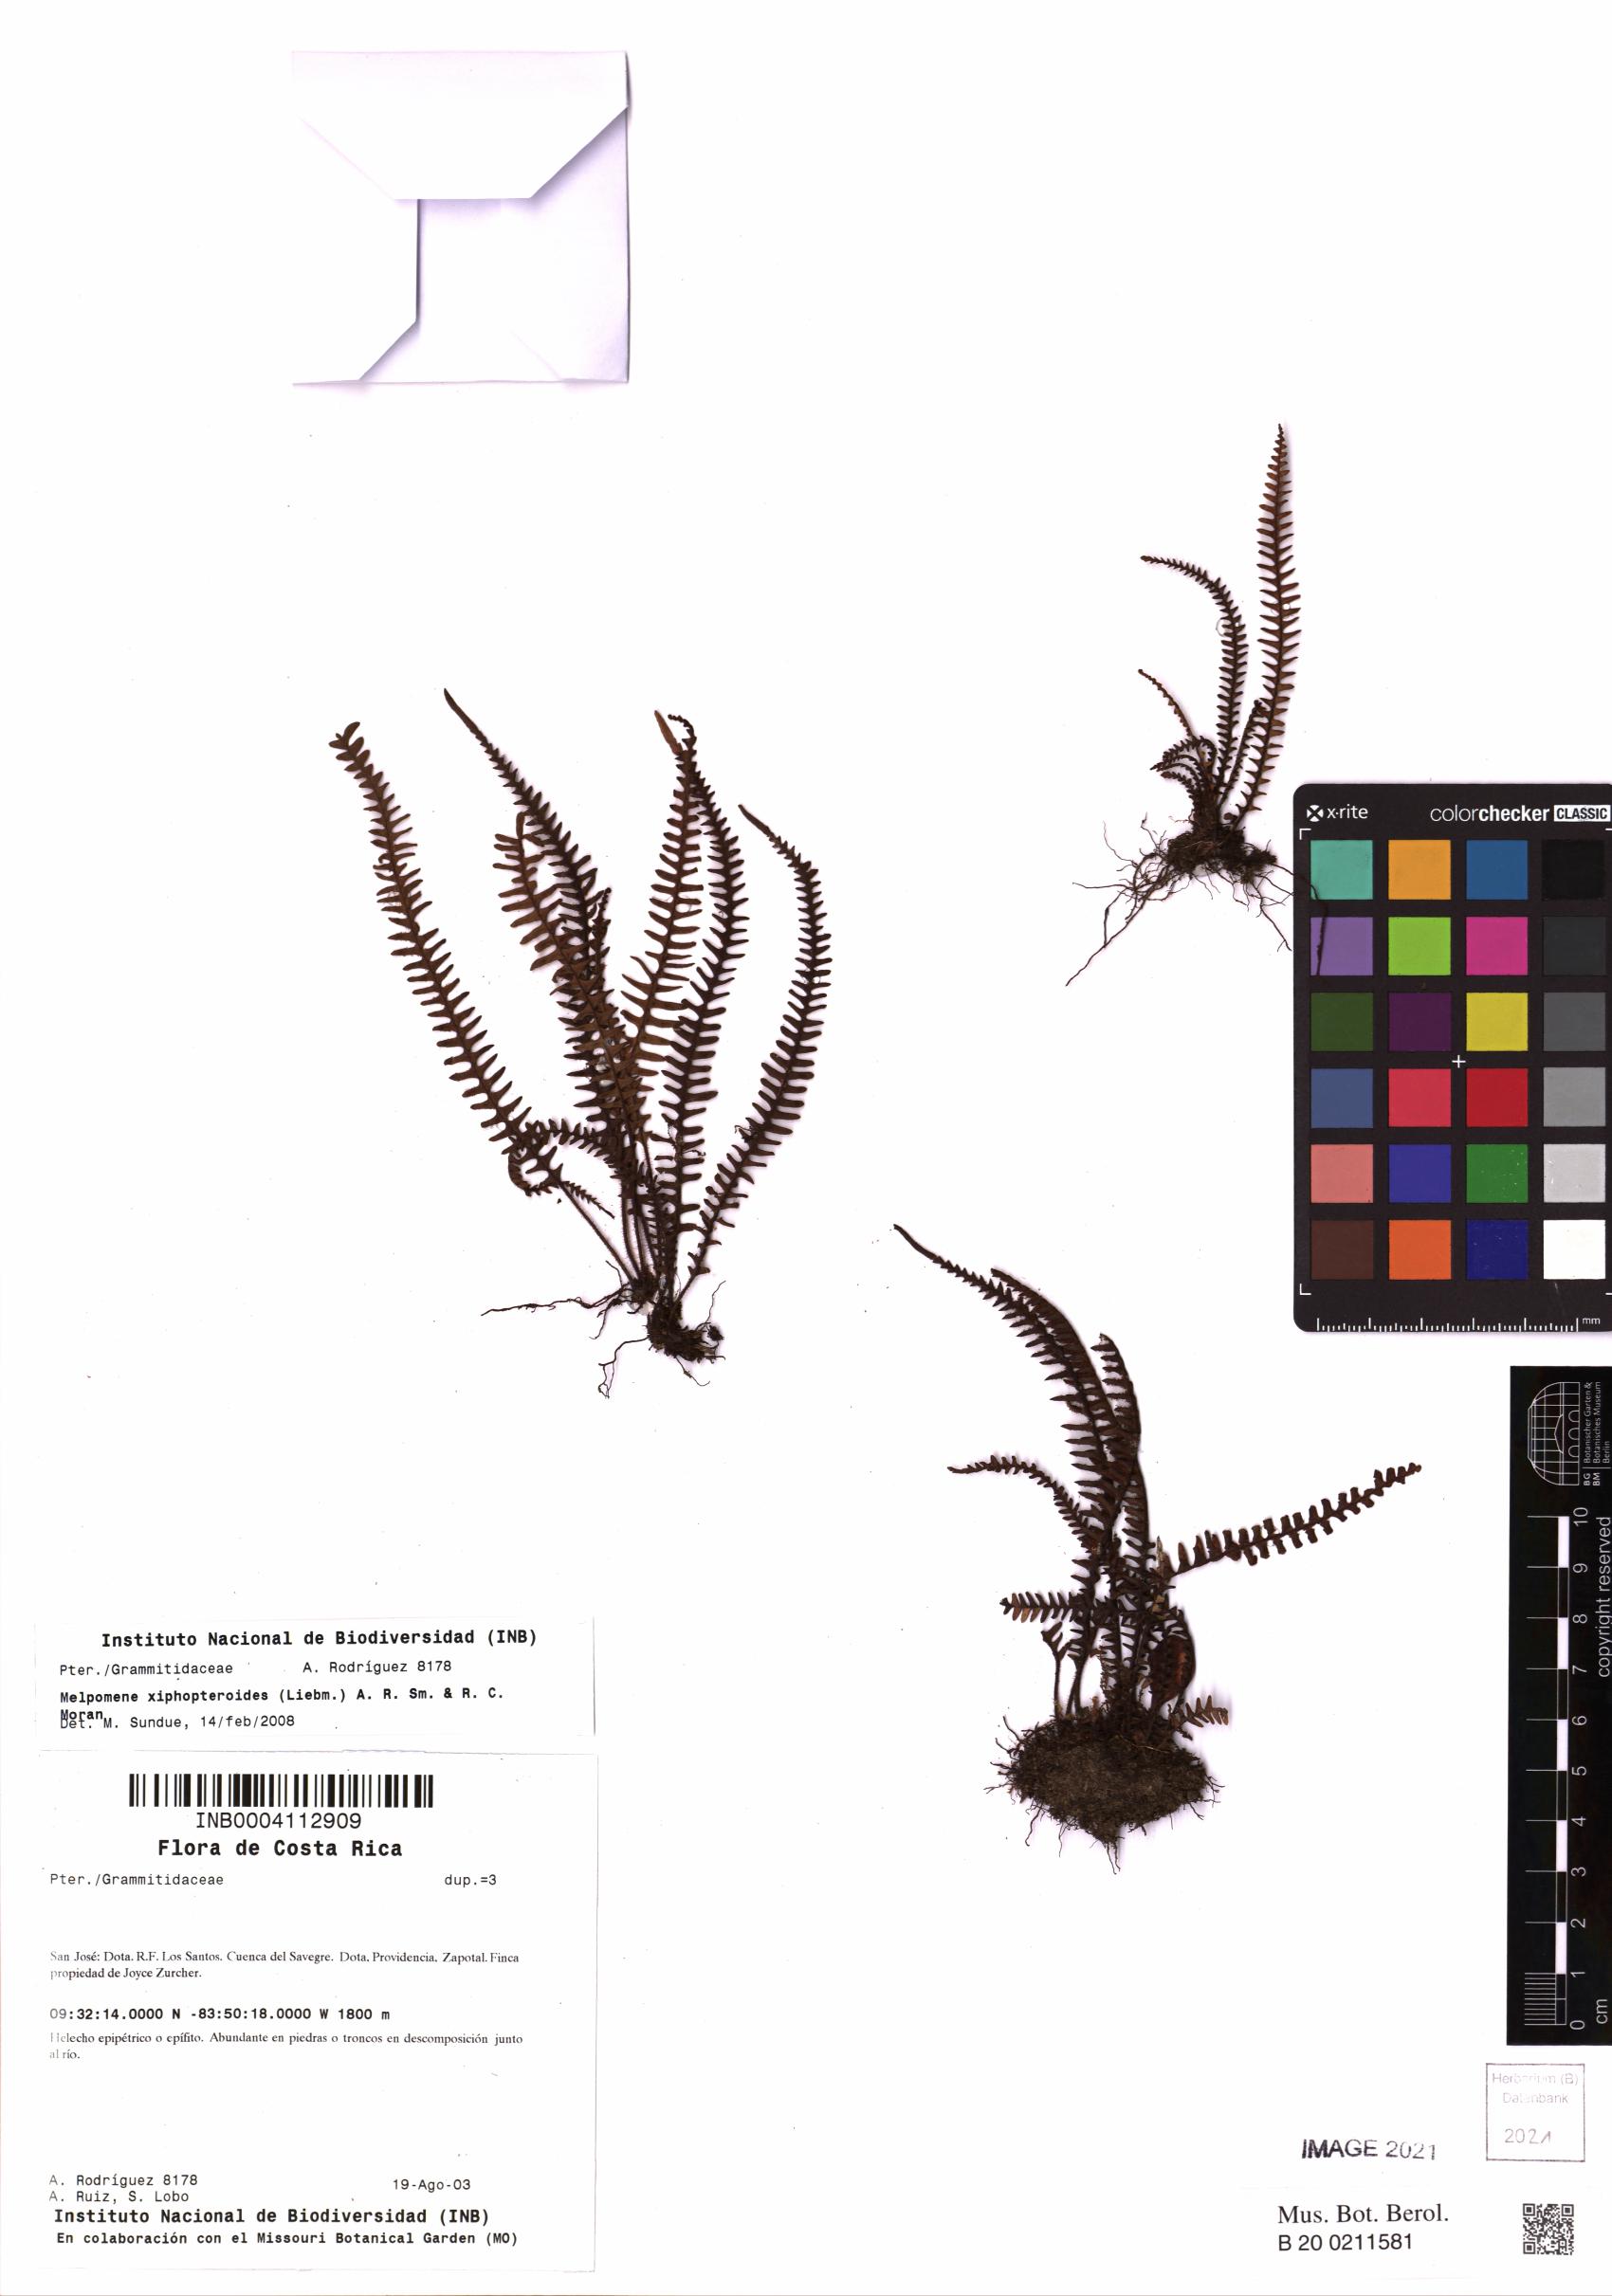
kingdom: Plantae
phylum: Tracheophyta
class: Polypodiopsida
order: Polypodiales
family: Polypodiaceae
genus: Melpomene
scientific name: Melpomene xiphopteroides
